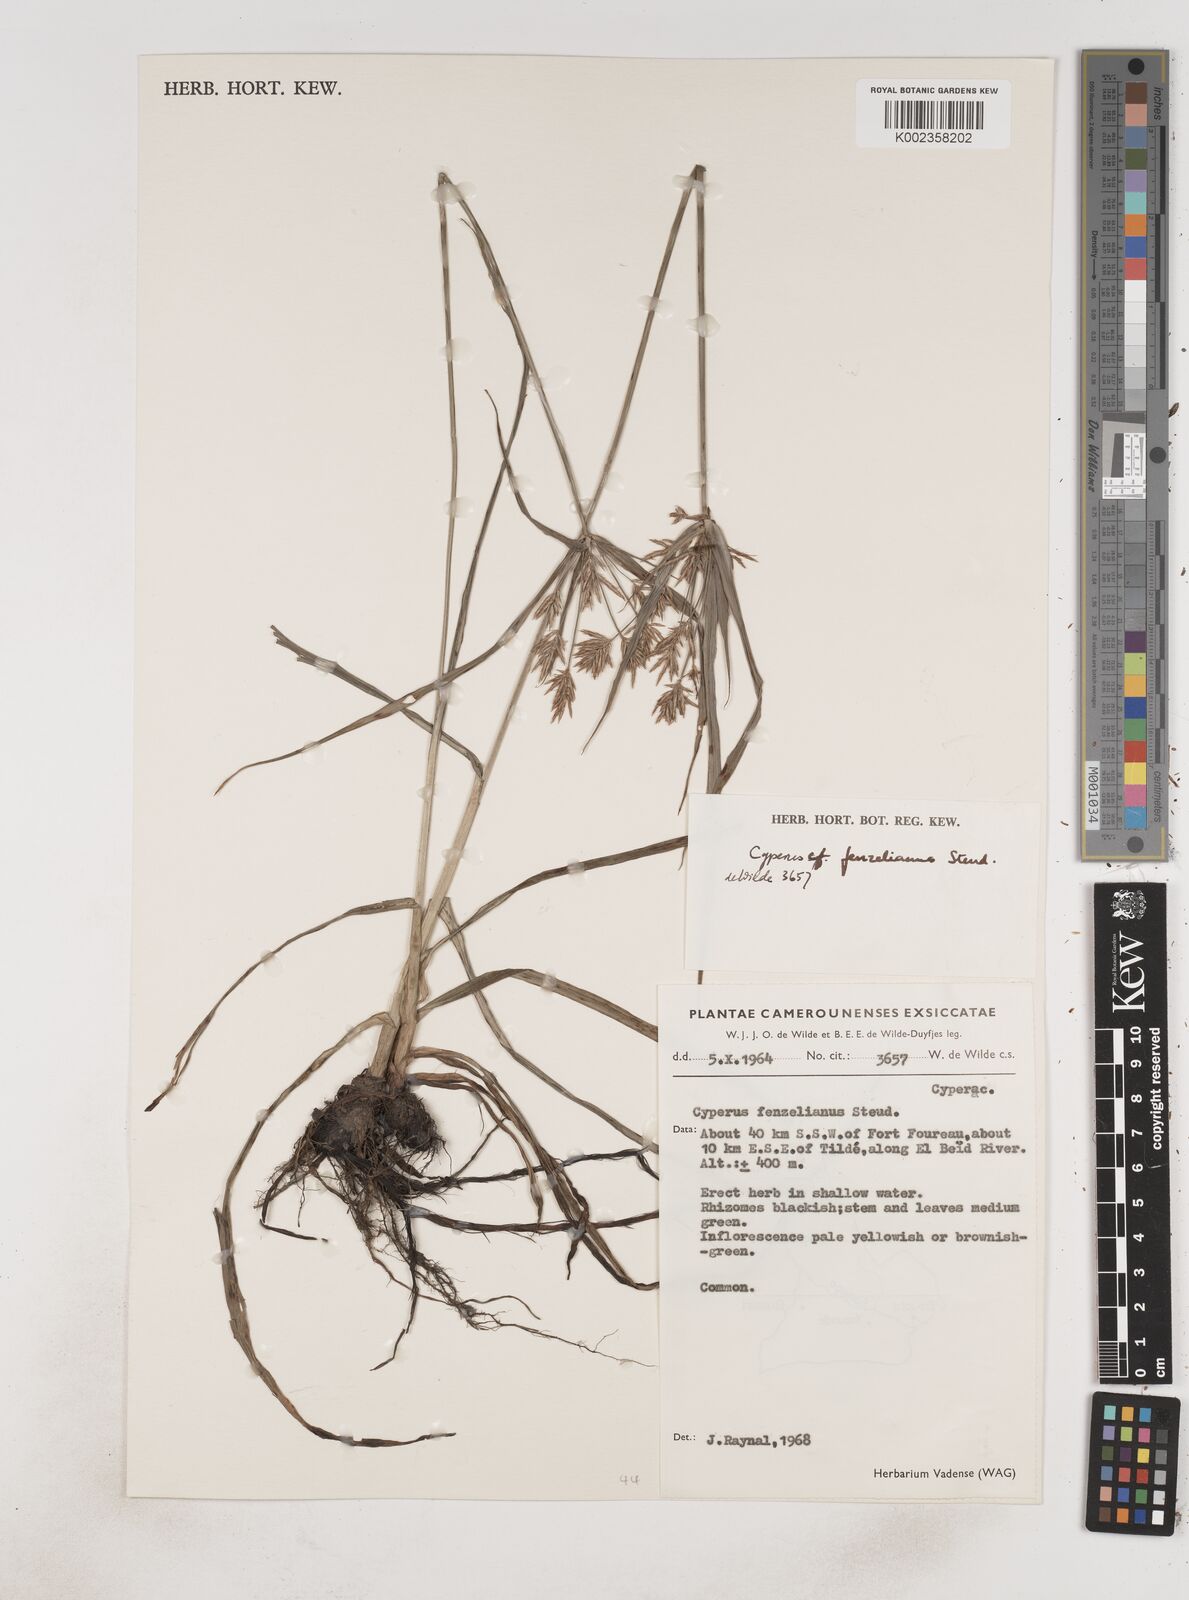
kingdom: Plantae
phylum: Tracheophyta
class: Liliopsida
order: Poales
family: Cyperaceae
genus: Cyperus
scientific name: Cyperus longus
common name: Galingale
